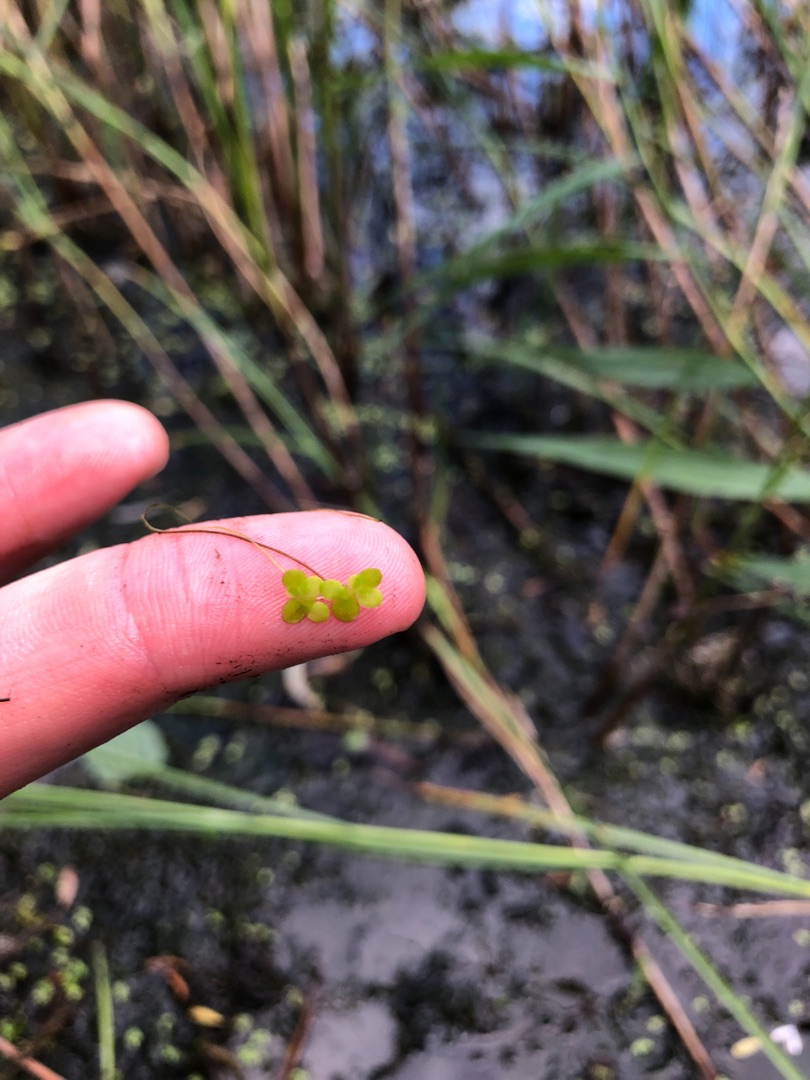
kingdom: Plantae
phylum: Tracheophyta
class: Liliopsida
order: Alismatales
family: Araceae
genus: Lemna
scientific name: Lemna minor
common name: Liden andemad
